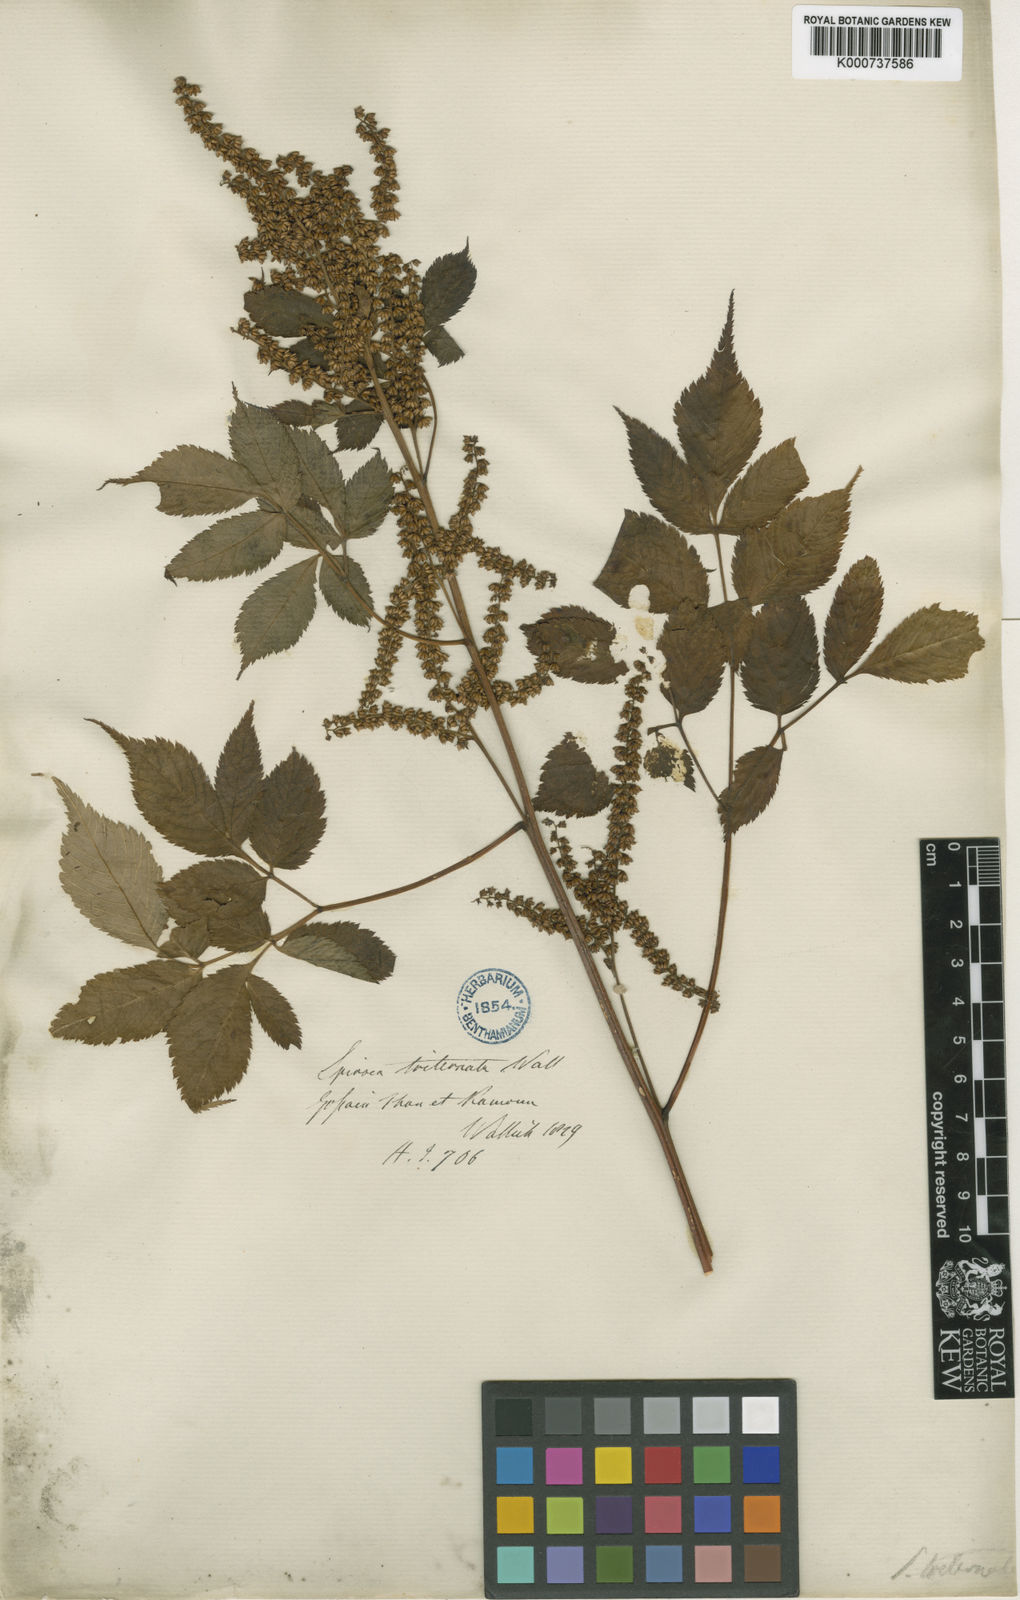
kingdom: Plantae
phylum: Tracheophyta
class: Magnoliopsida
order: Rosales
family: Rosaceae
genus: Aruncus
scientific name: Aruncus sylvester
